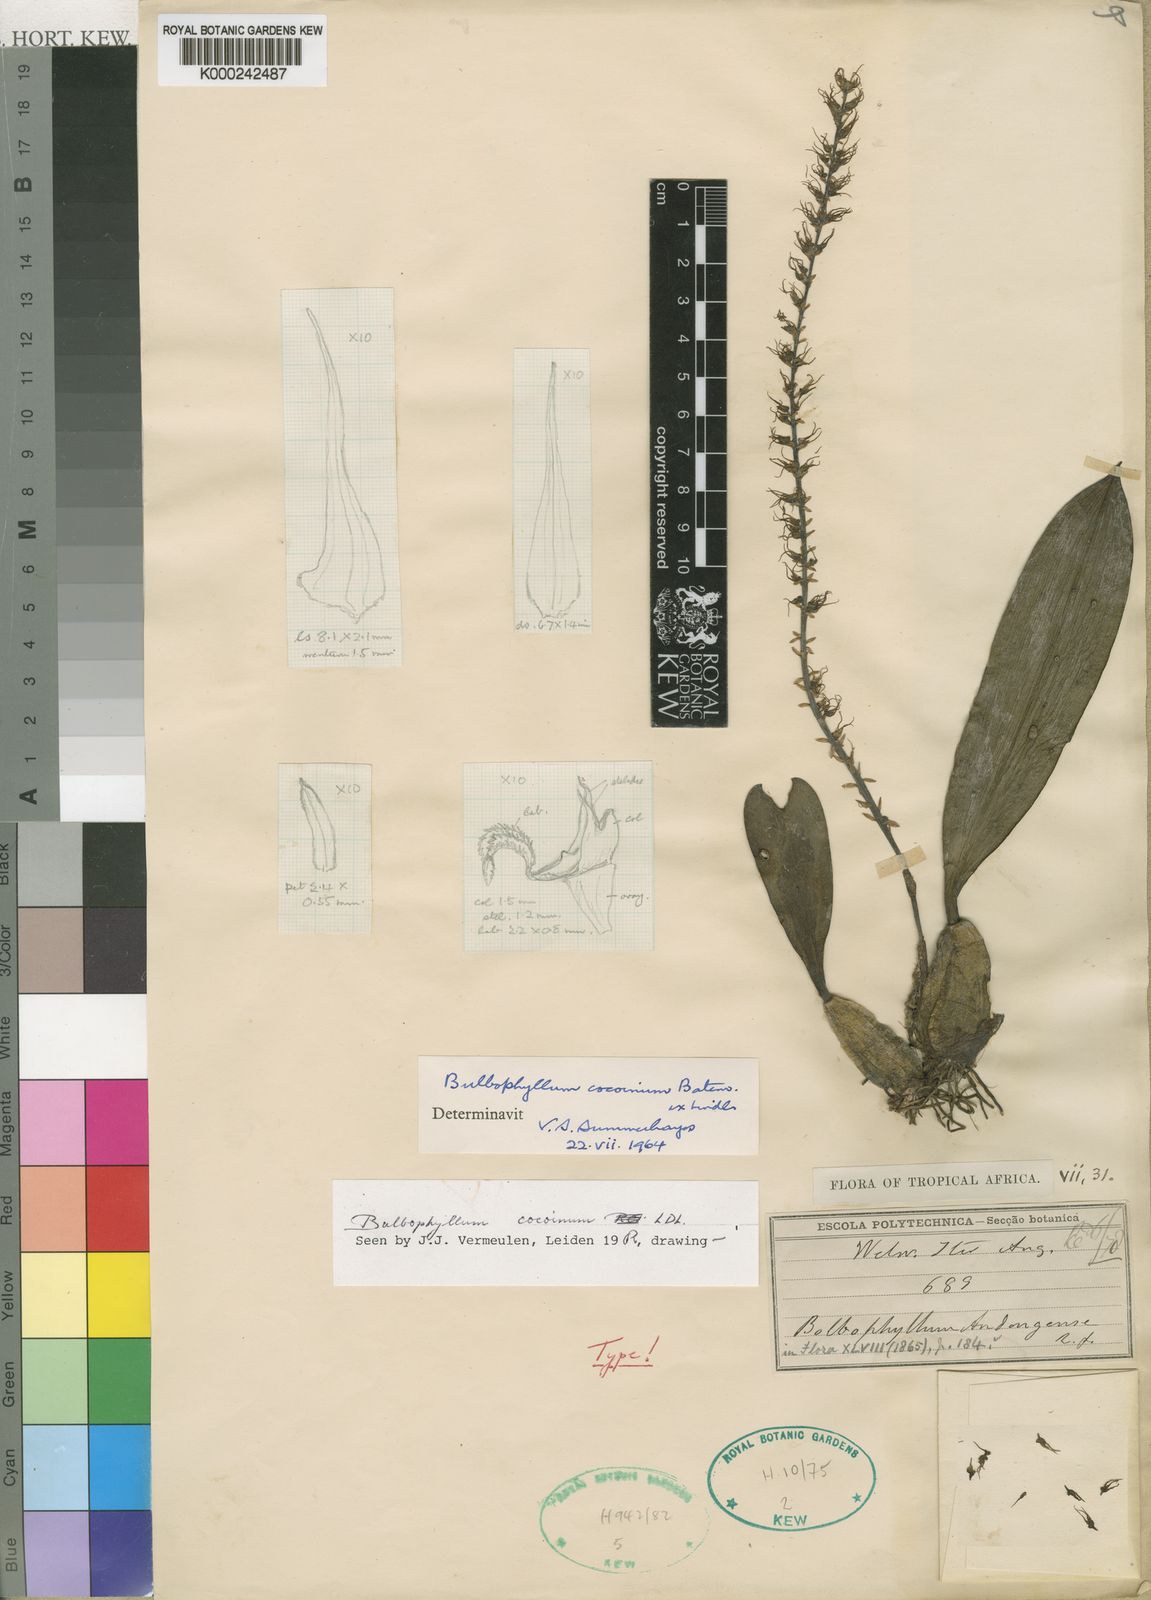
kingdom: Plantae
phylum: Tracheophyta
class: Liliopsida
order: Asparagales
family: Orchidaceae
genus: Bulbophyllum
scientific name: Bulbophyllum cocoinum
